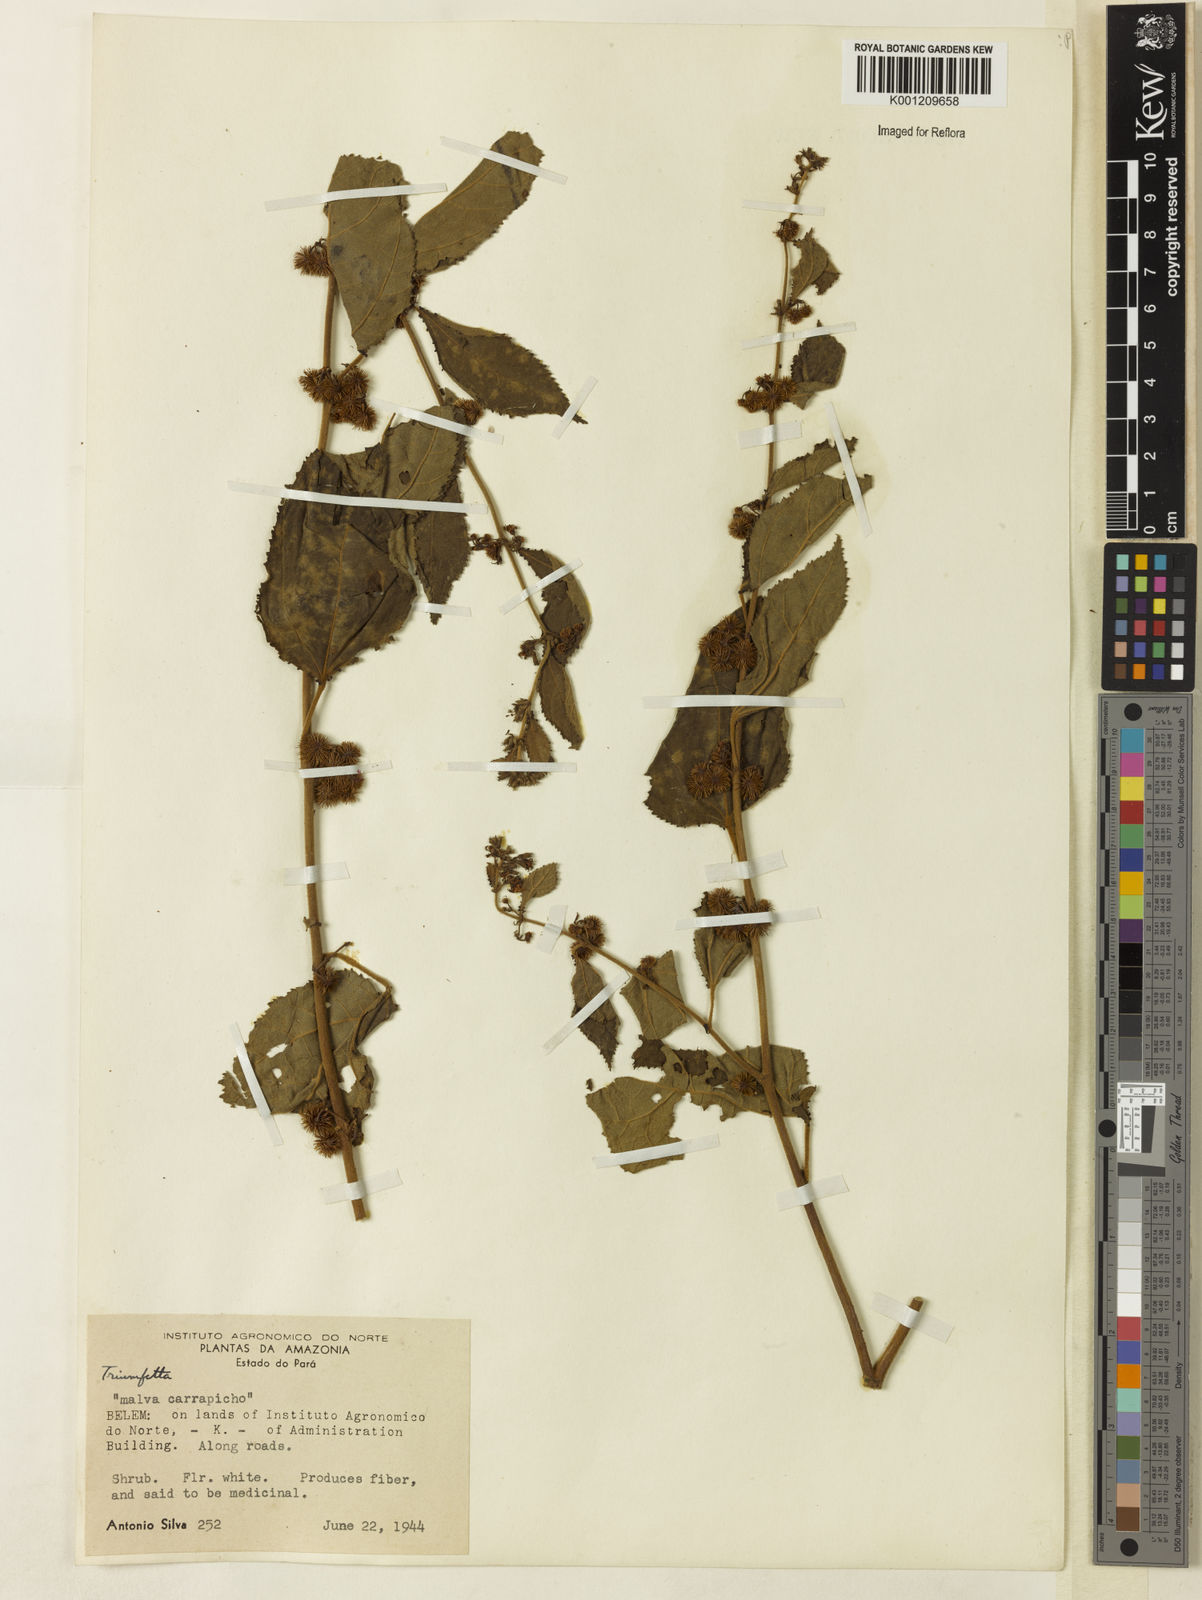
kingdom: Plantae
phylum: Tracheophyta
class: Magnoliopsida
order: Malvales
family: Malvaceae
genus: Triumfetta
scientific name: Triumfetta
